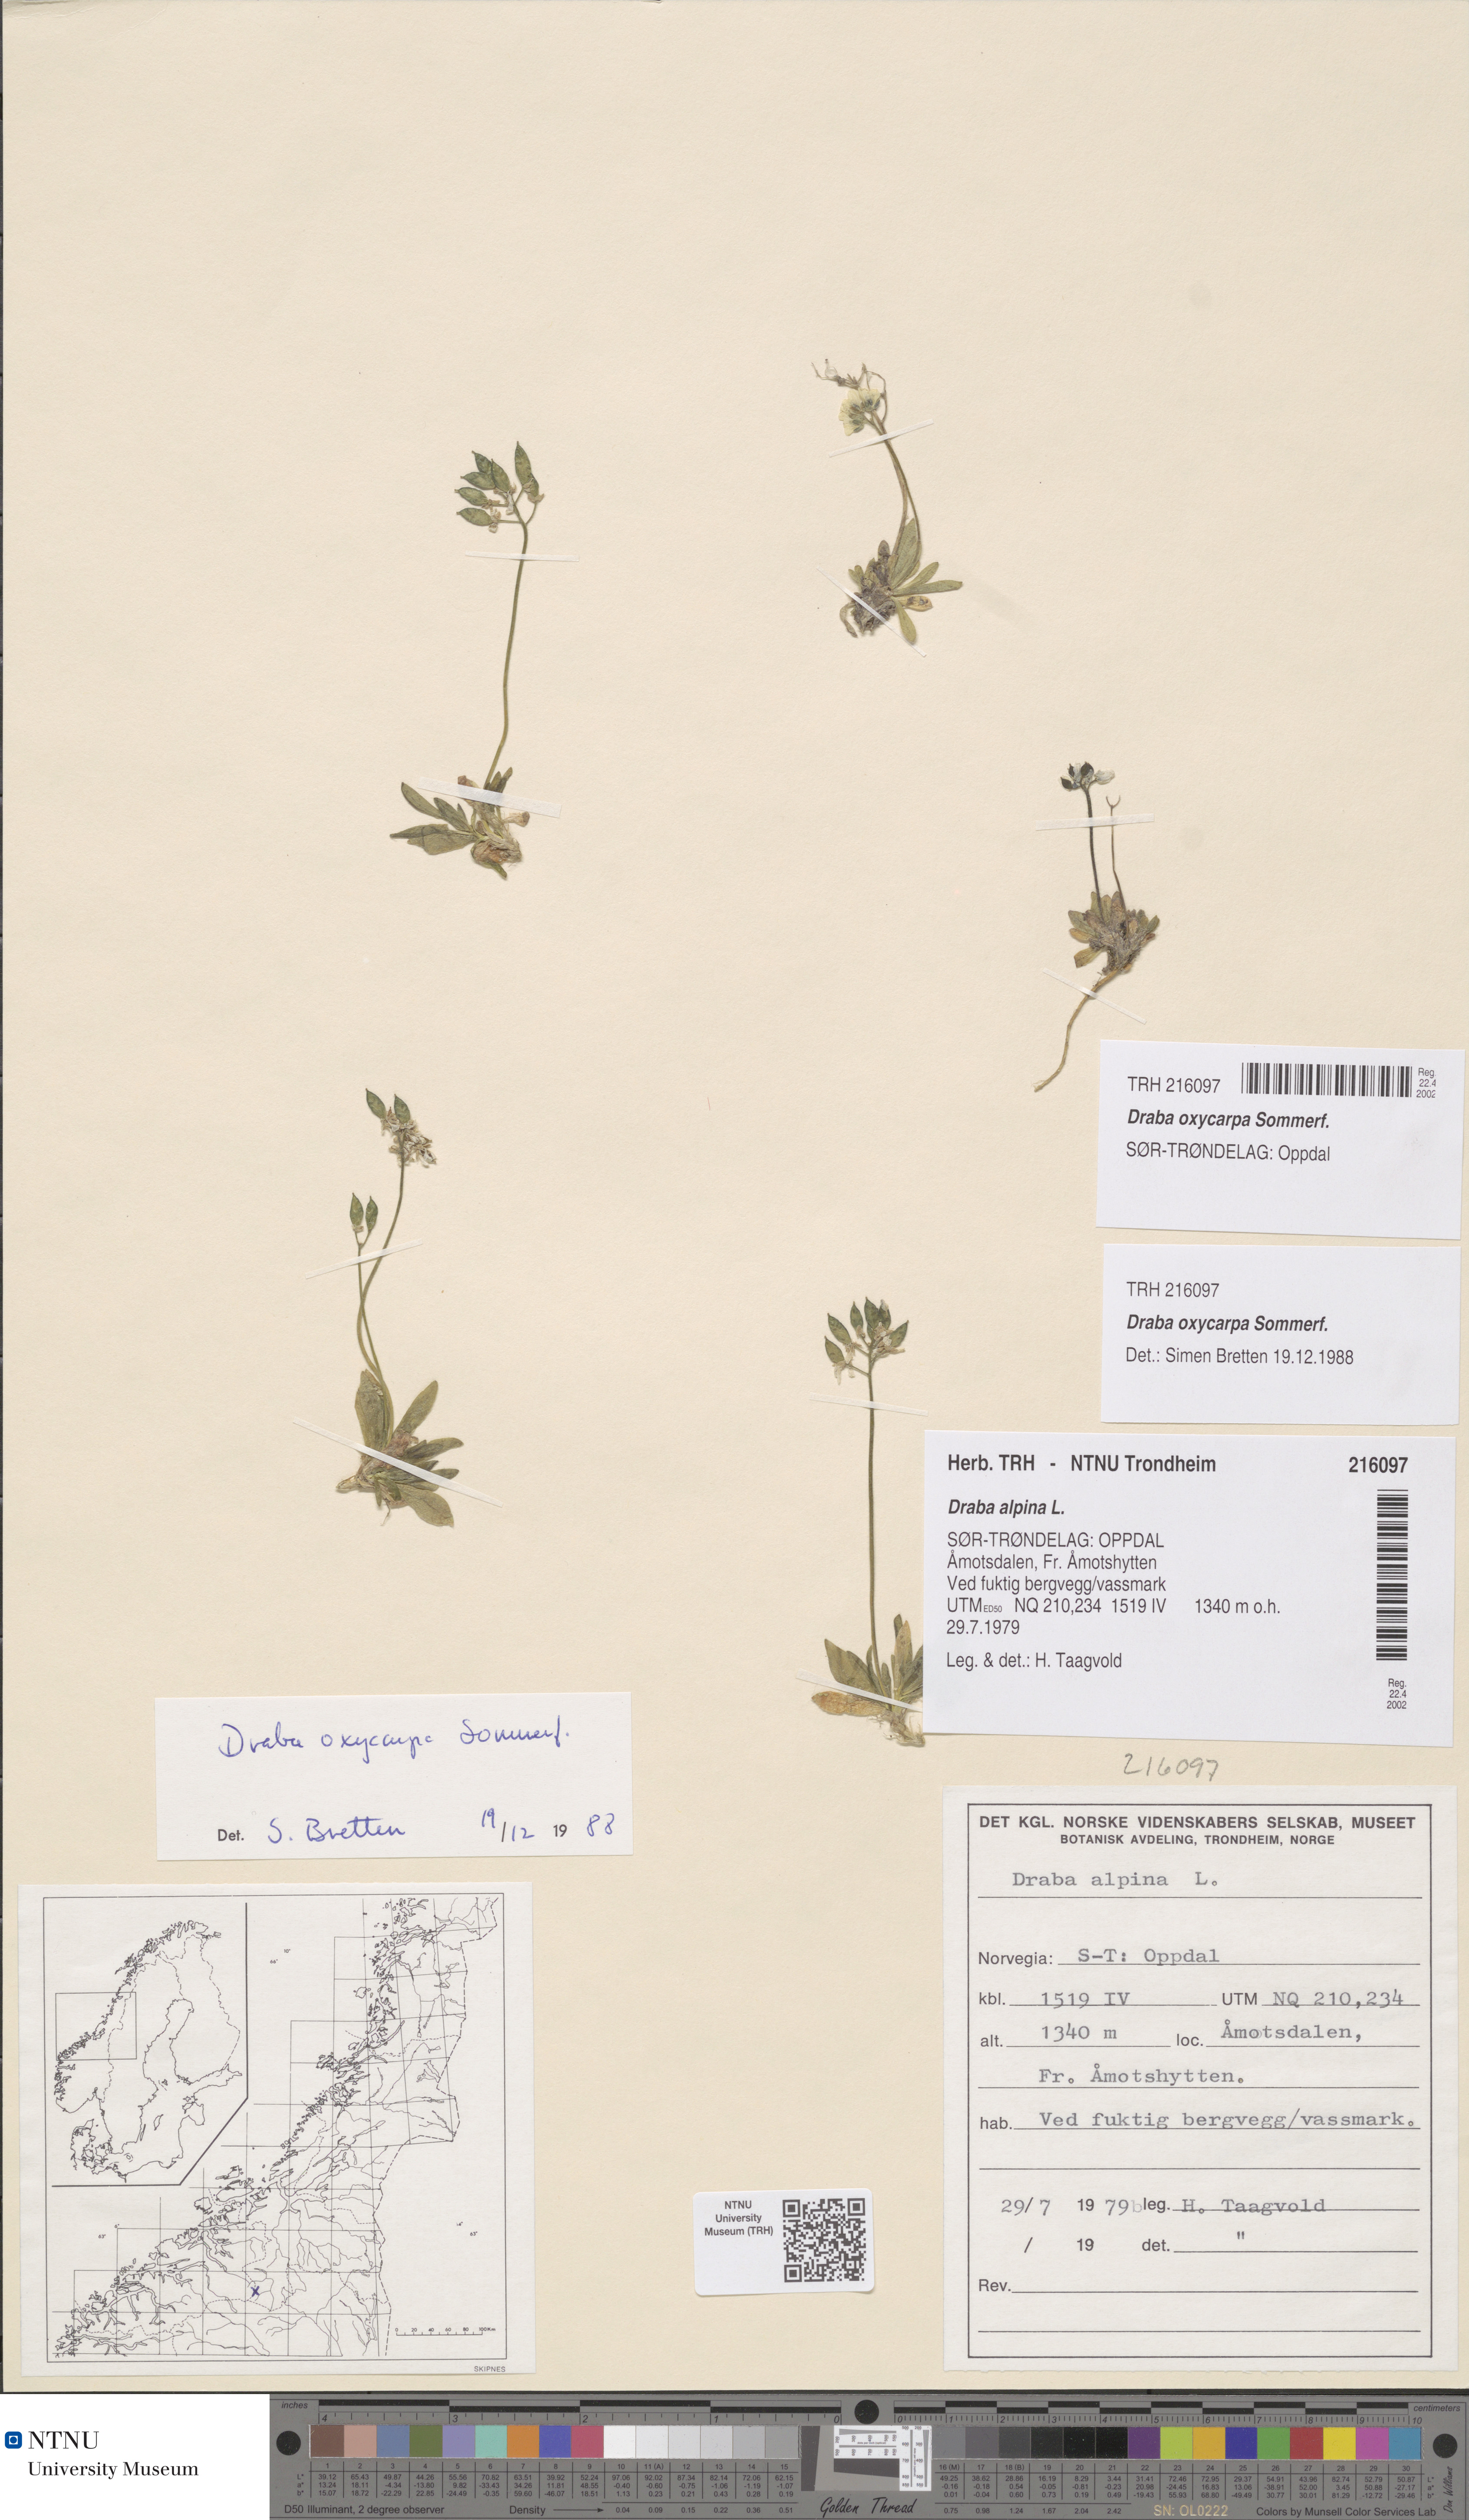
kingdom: Plantae
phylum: Tracheophyta
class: Magnoliopsida
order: Brassicales
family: Brassicaceae
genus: Draba
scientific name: Draba oxycarpa
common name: Sharp-fruited whitlow-grass
